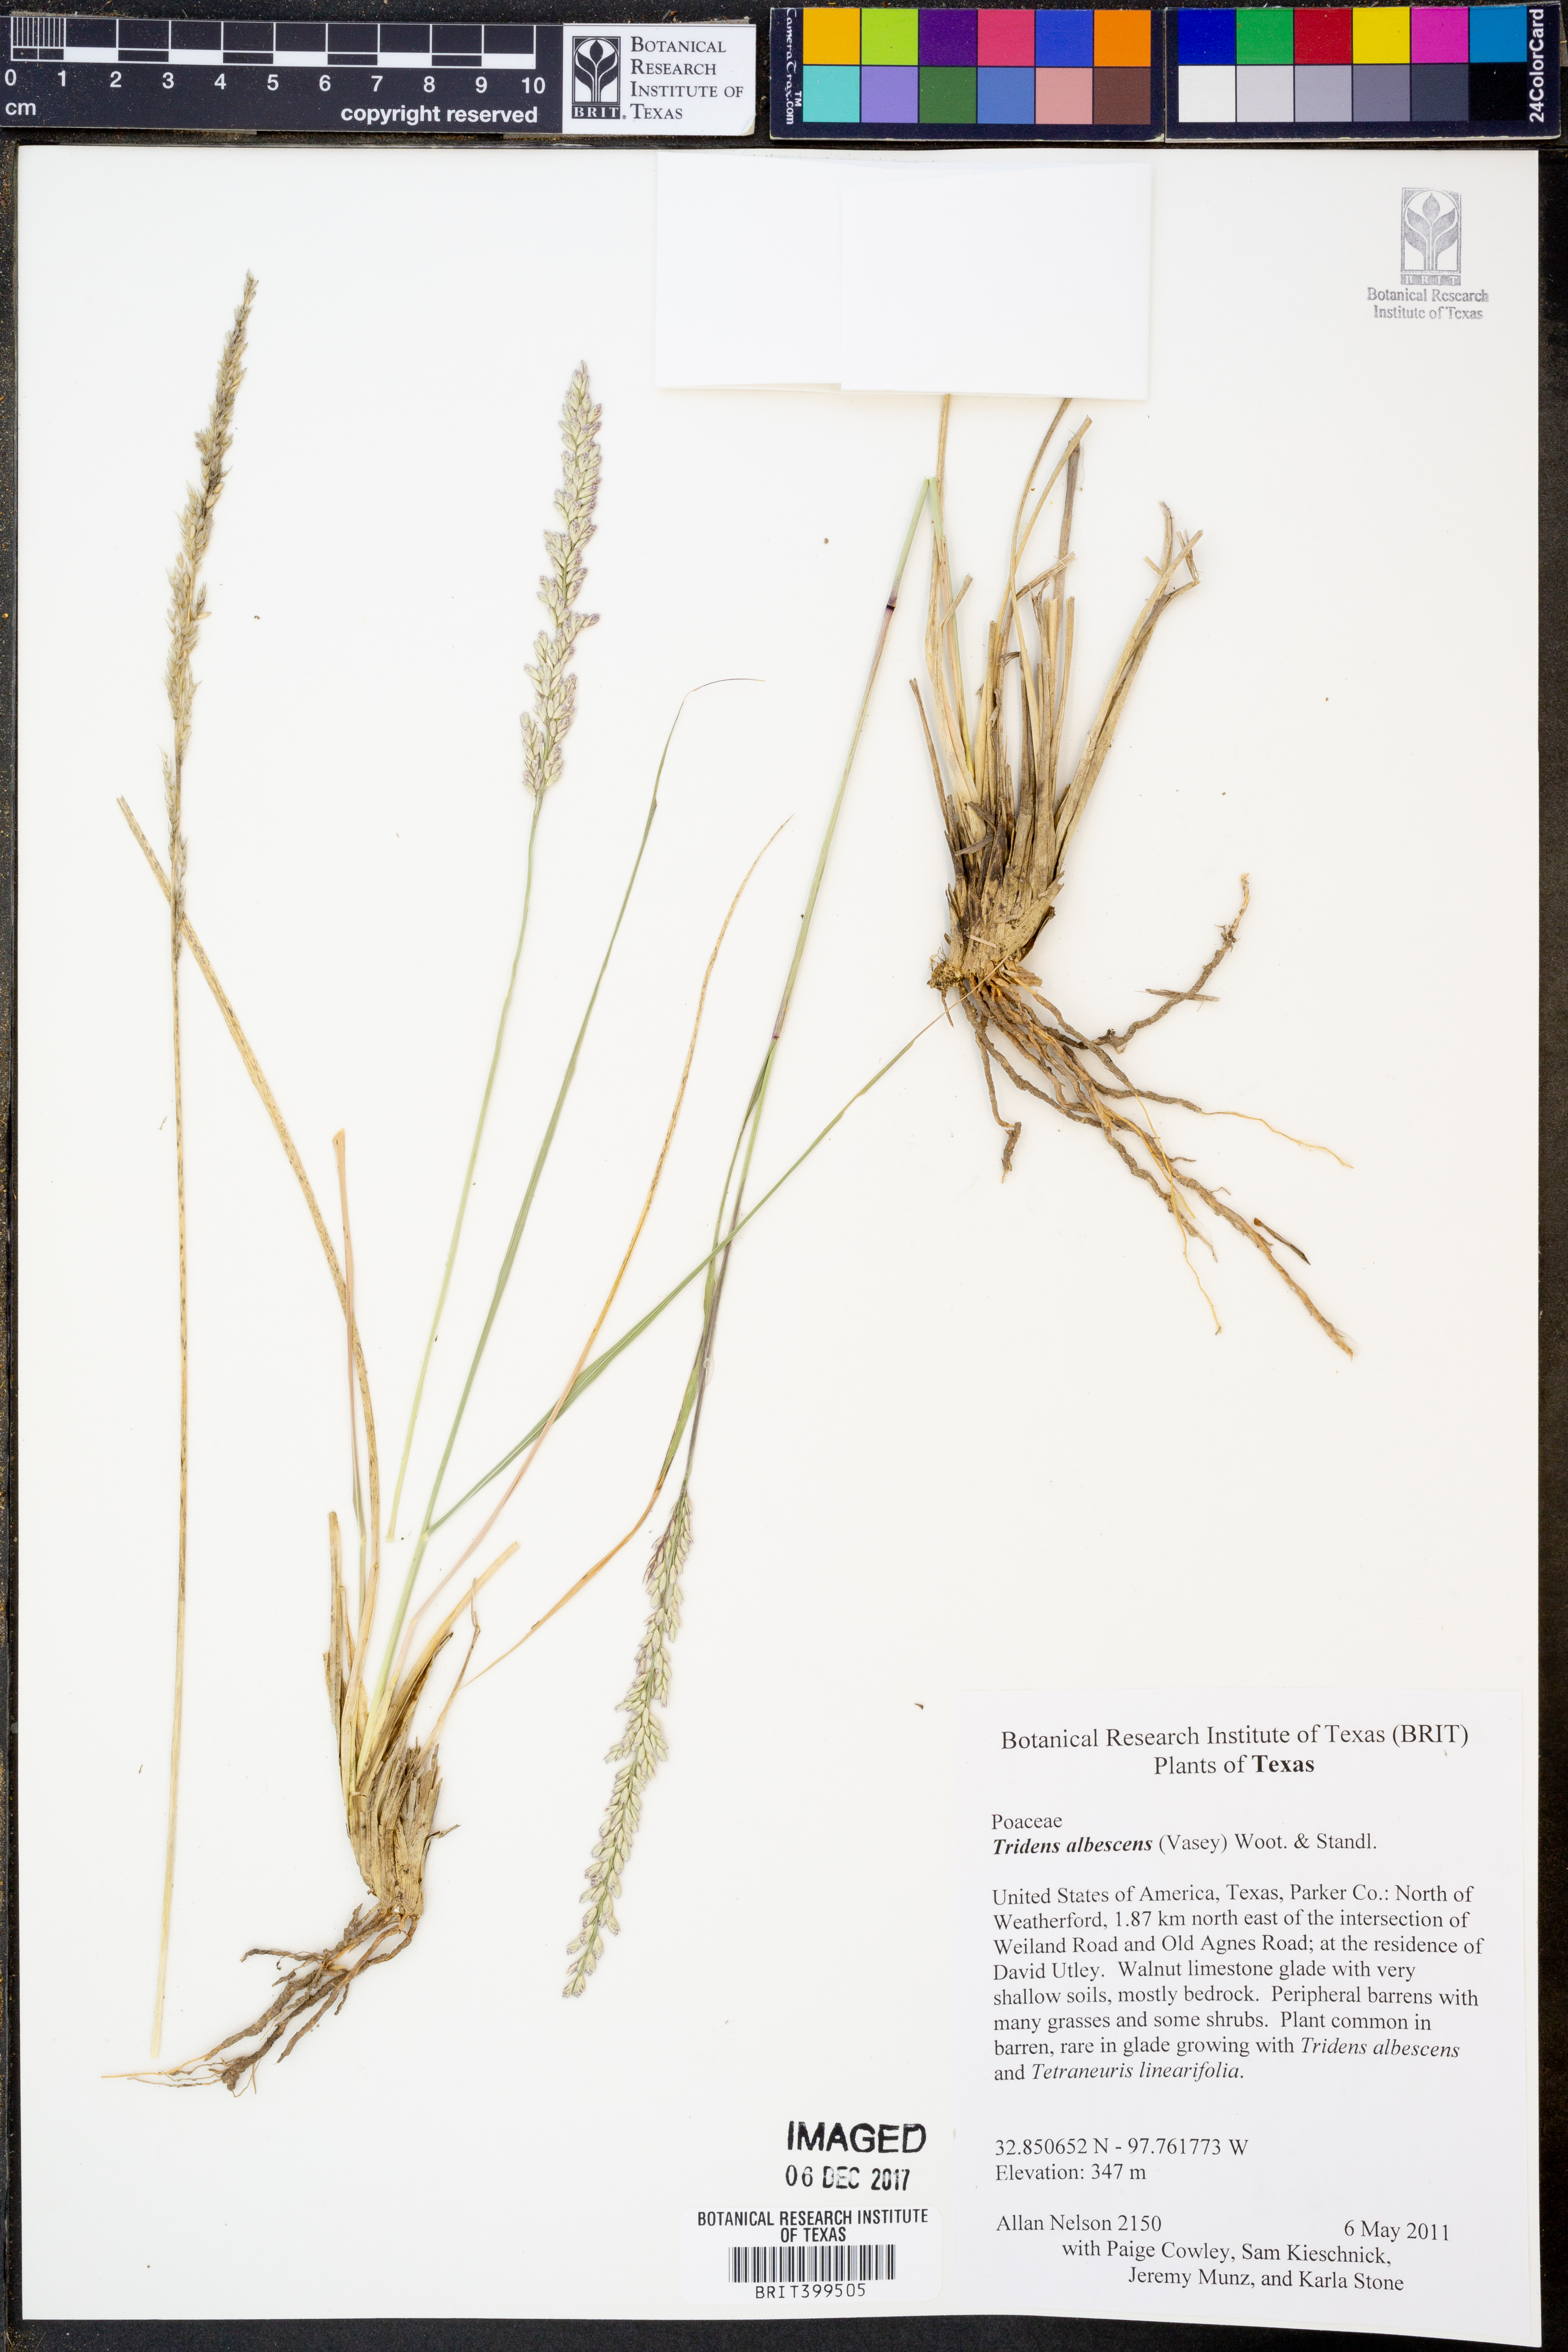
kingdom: Plantae
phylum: Tracheophyta
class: Liliopsida
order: Poales
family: Poaceae
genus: Tridens
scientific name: Tridens albescens
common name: White tridens
